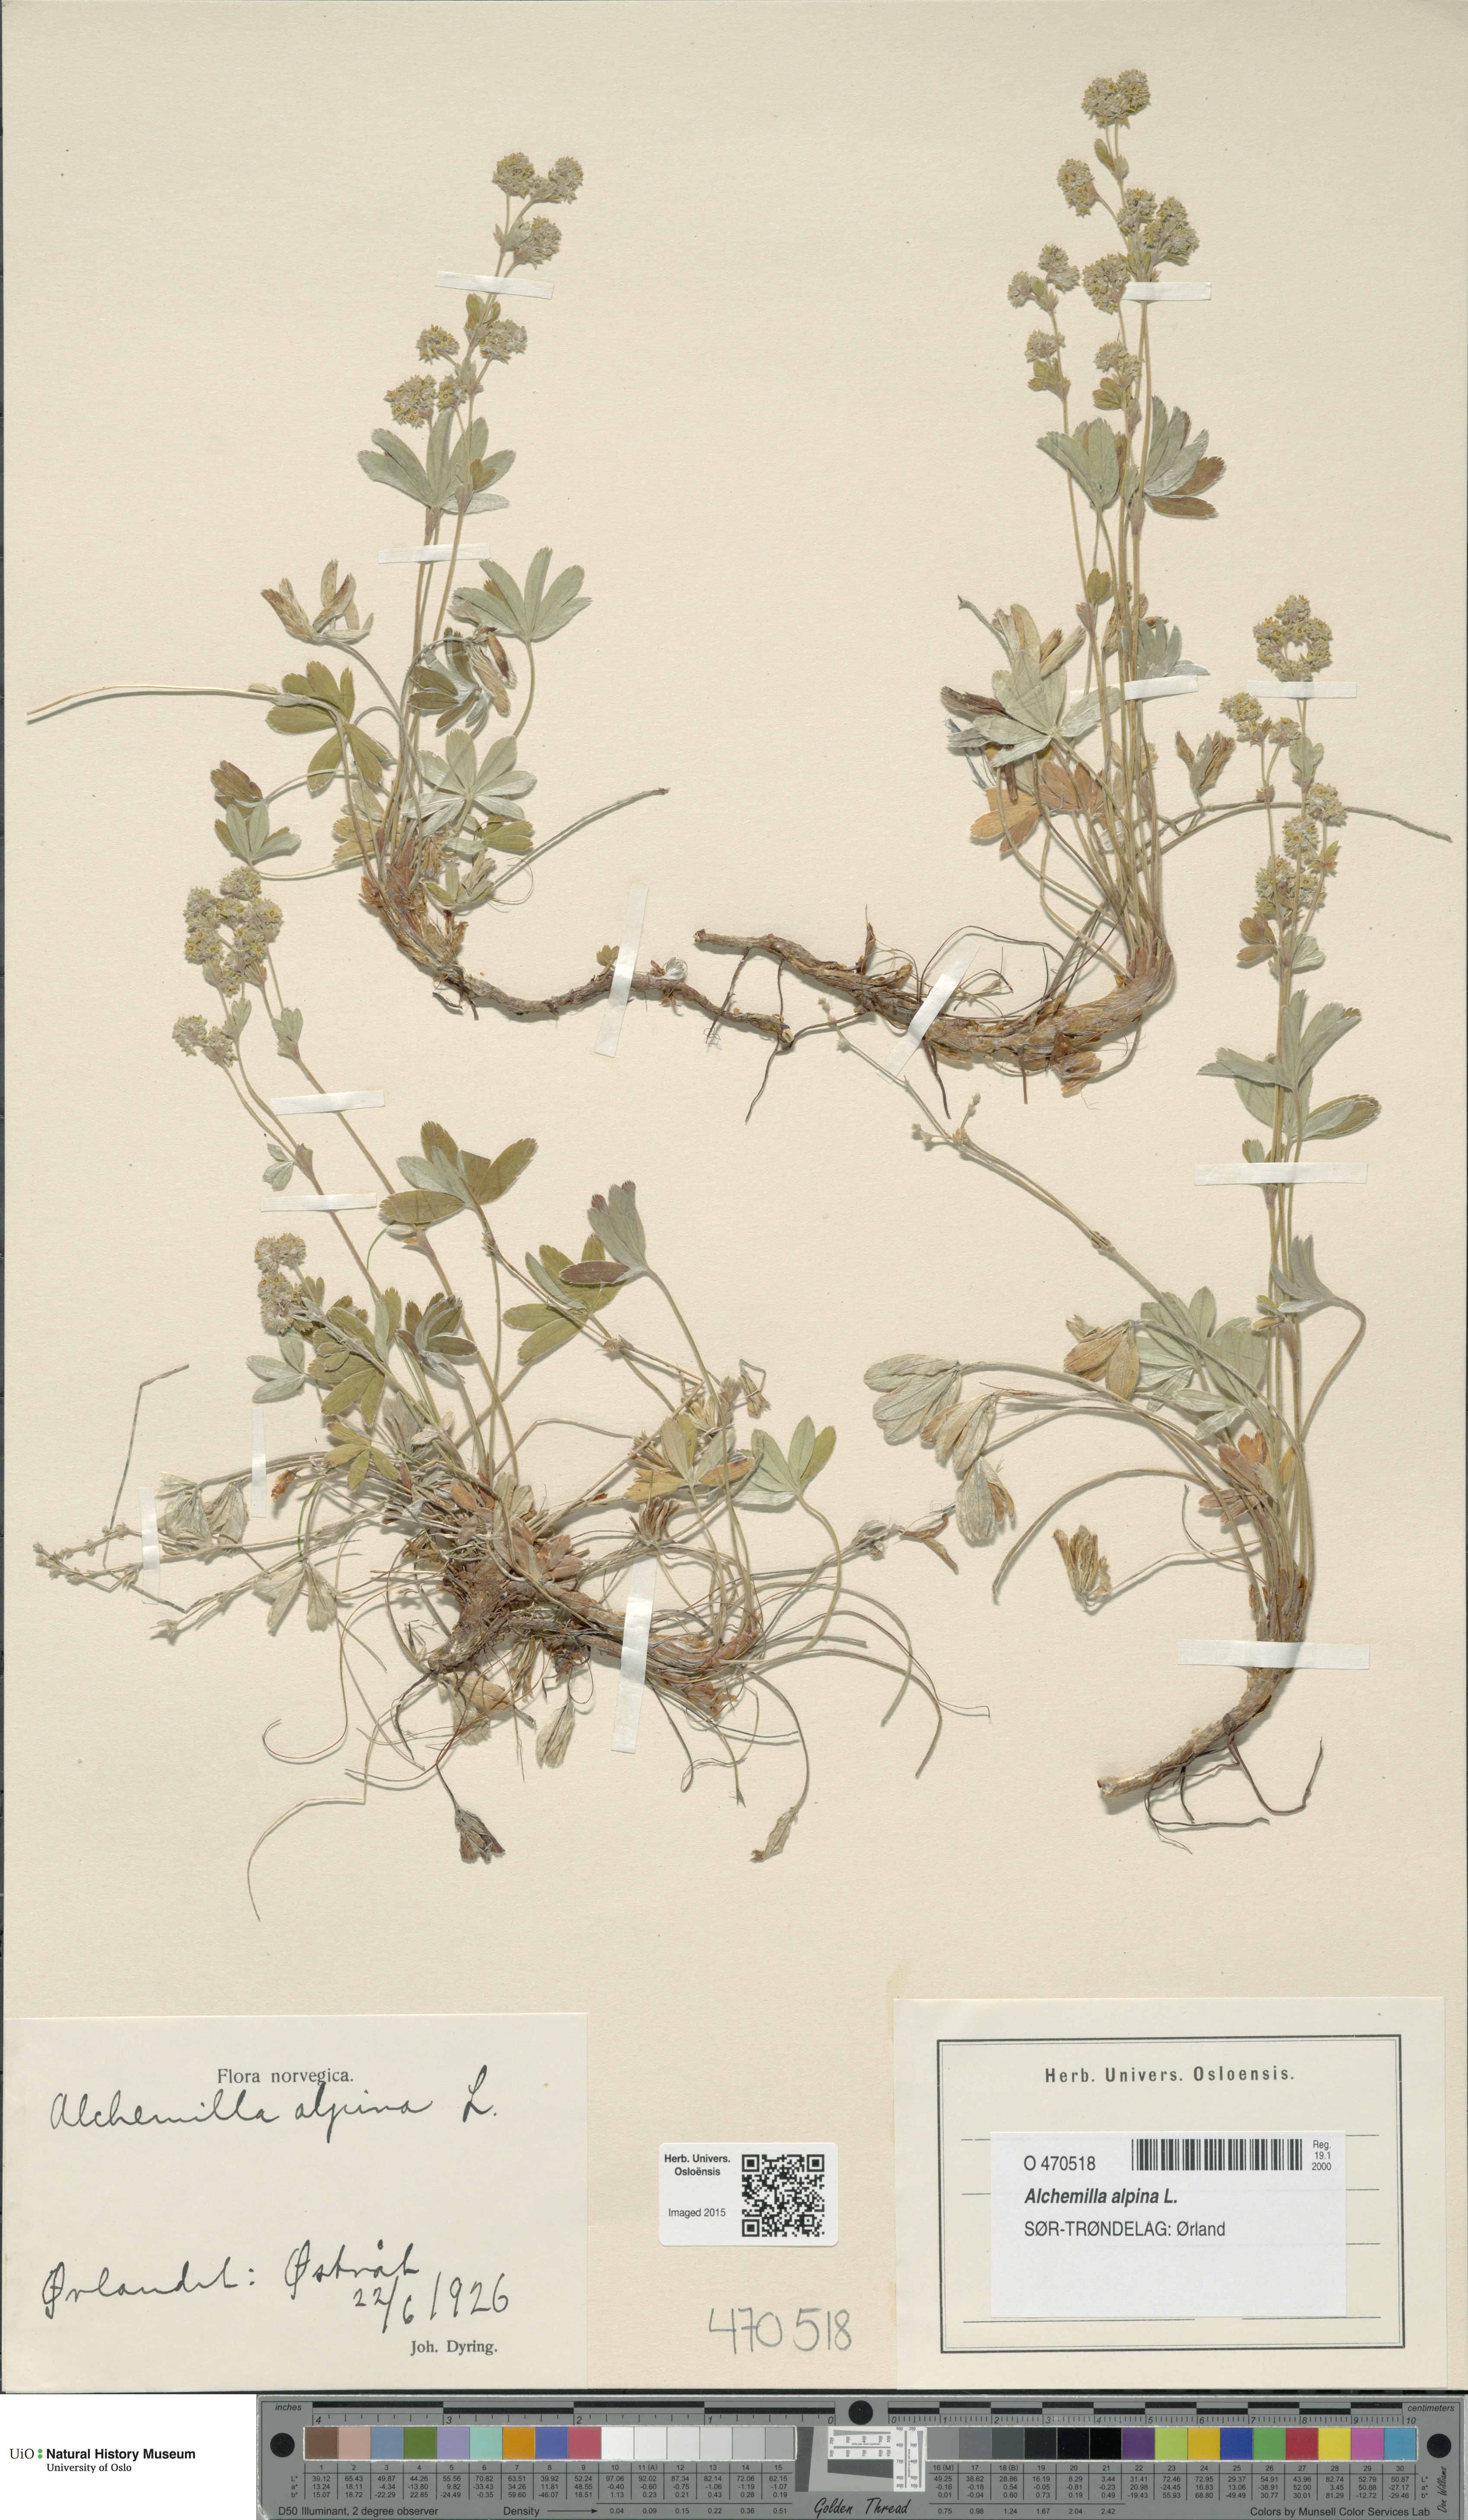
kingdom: Plantae
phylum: Tracheophyta
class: Magnoliopsida
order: Rosales
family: Rosaceae
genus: Alchemilla
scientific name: Alchemilla alpina
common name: Alpine lady's-mantle
